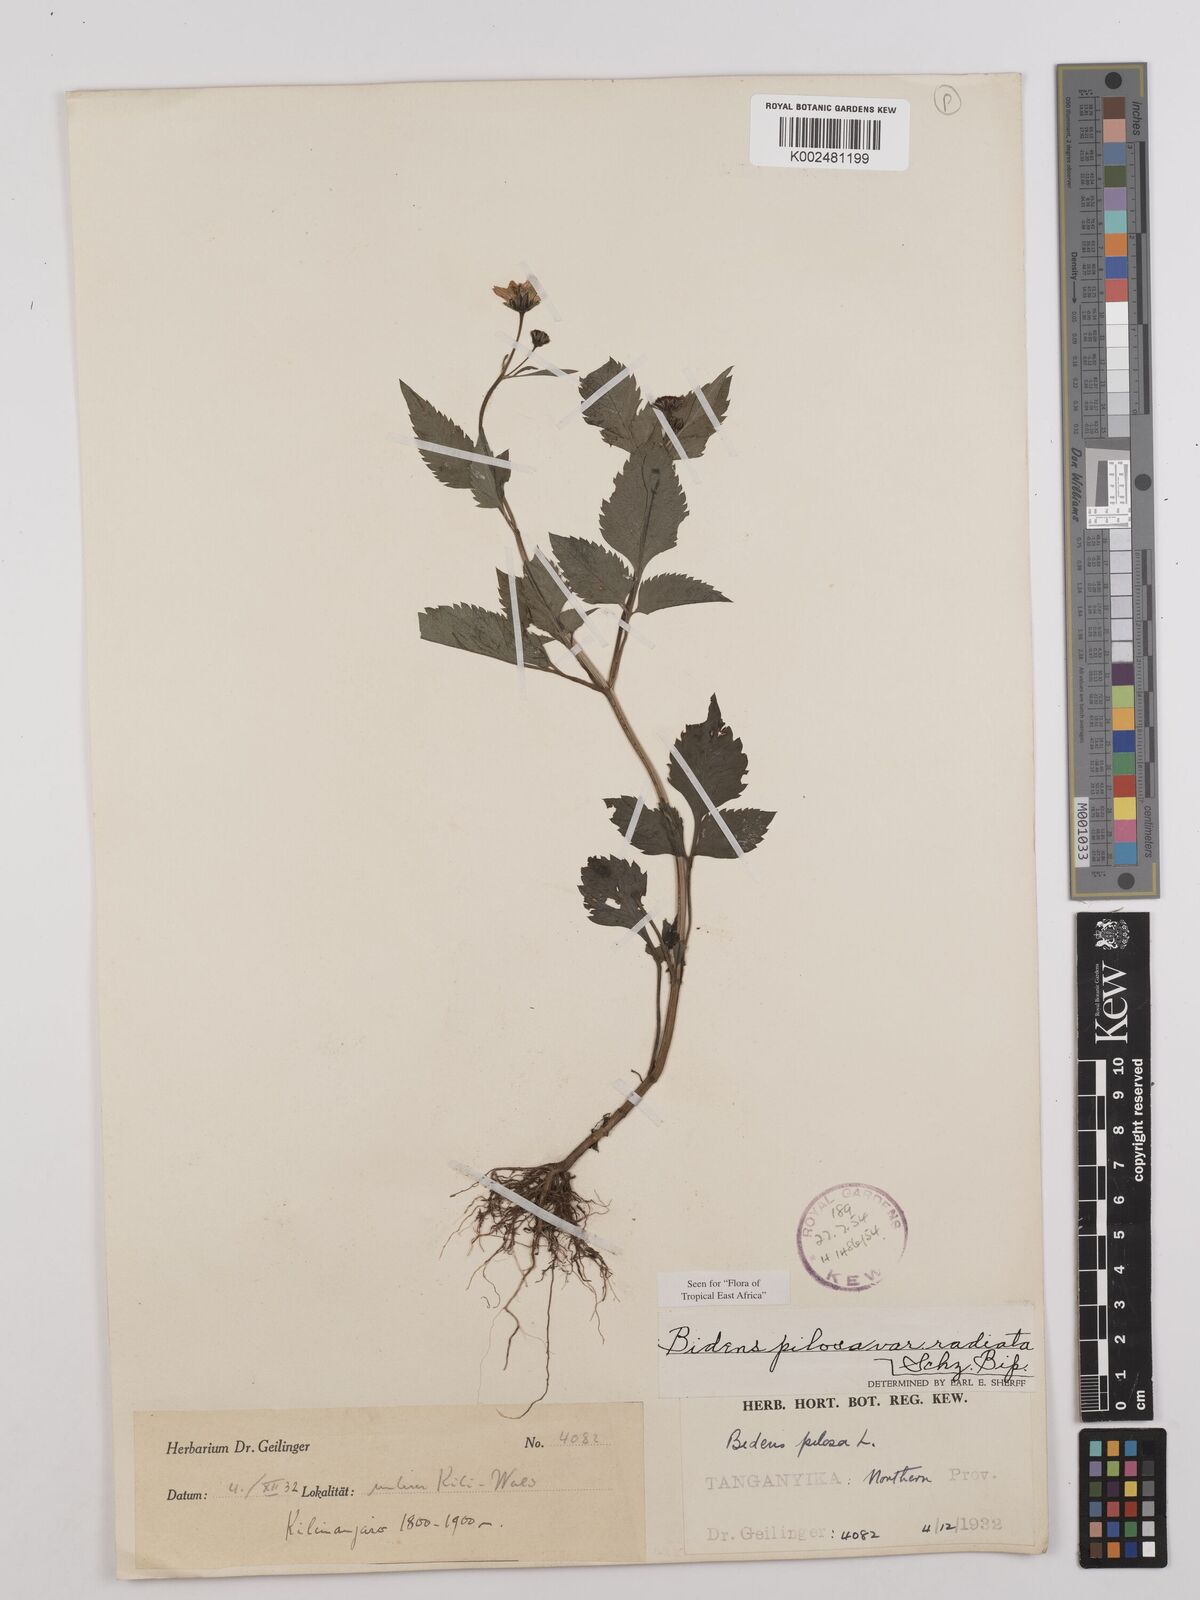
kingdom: Plantae
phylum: Tracheophyta
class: Magnoliopsida
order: Asterales
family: Asteraceae
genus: Bidens
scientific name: Bidens pilosa
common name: Black-jack
